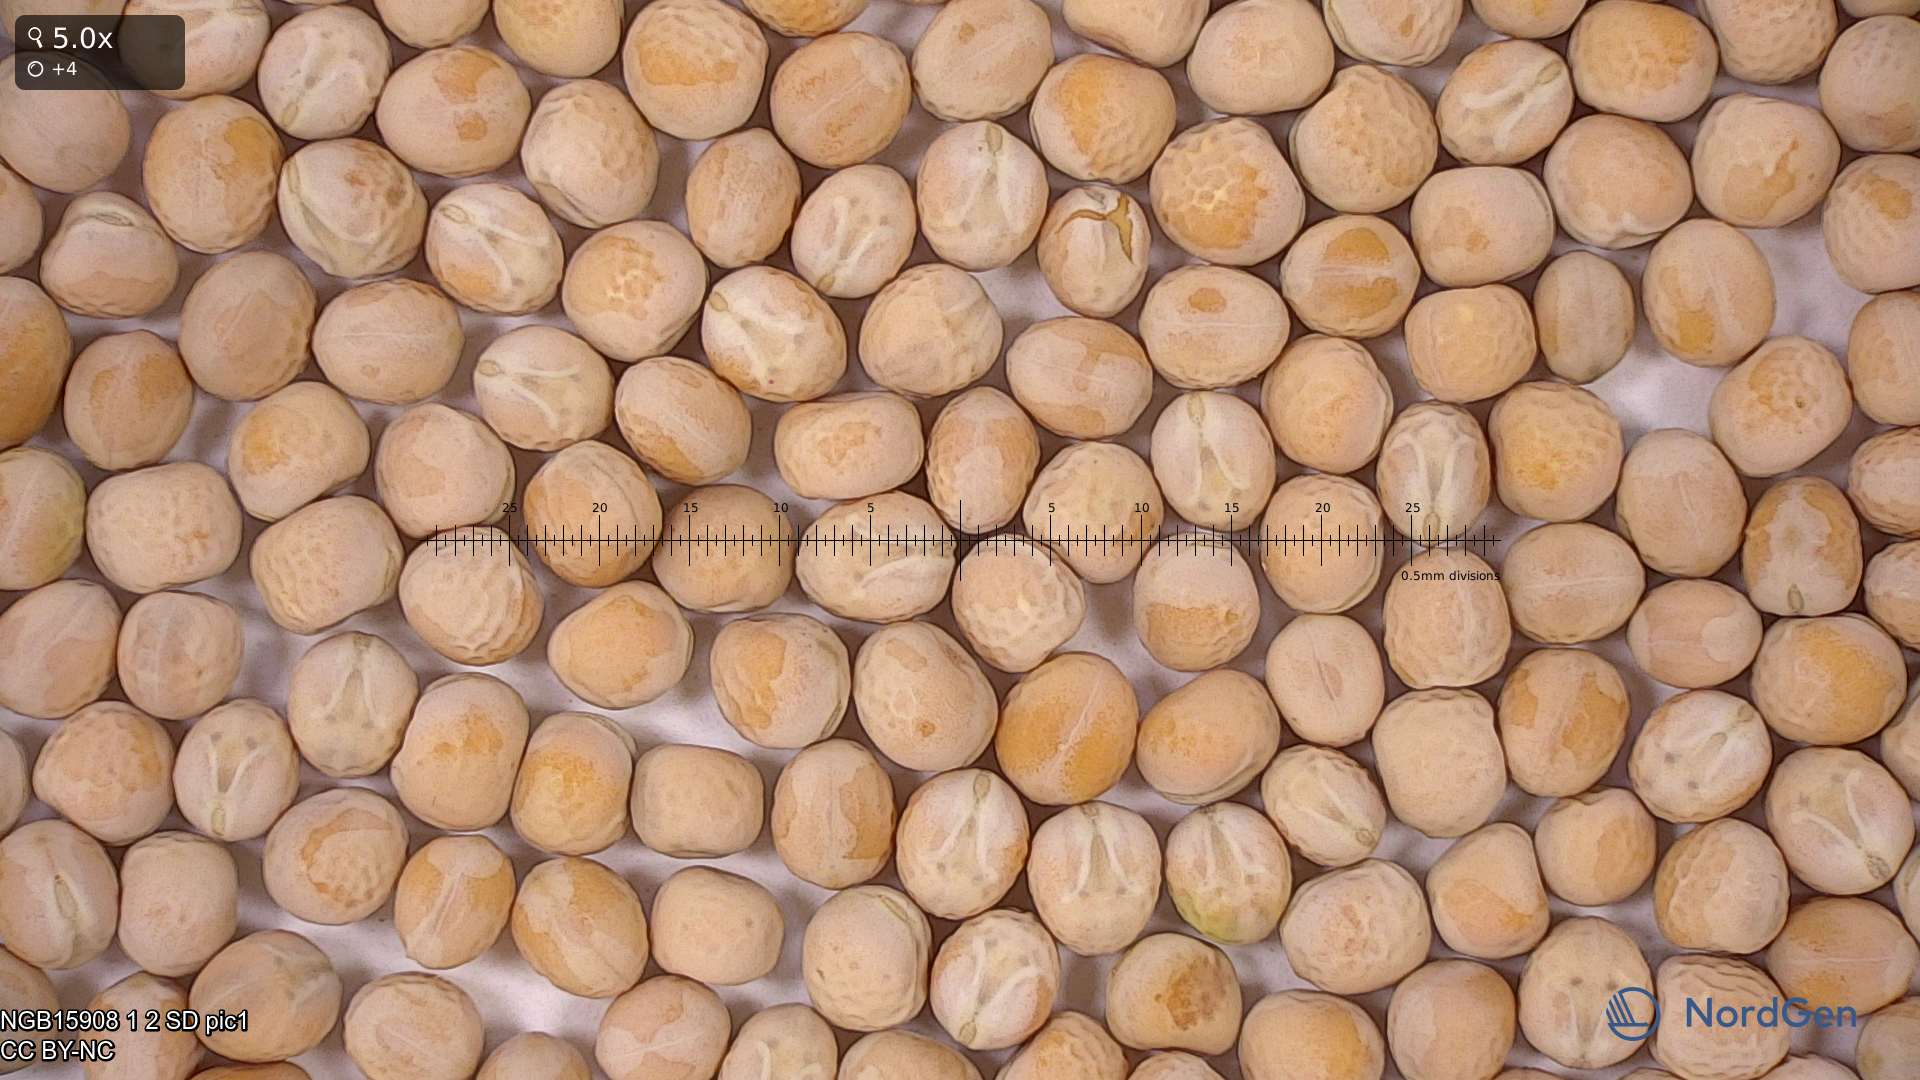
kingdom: Plantae
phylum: Tracheophyta
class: Magnoliopsida
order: Fabales
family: Fabaceae
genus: Lathyrus
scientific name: Lathyrus oleraceus
